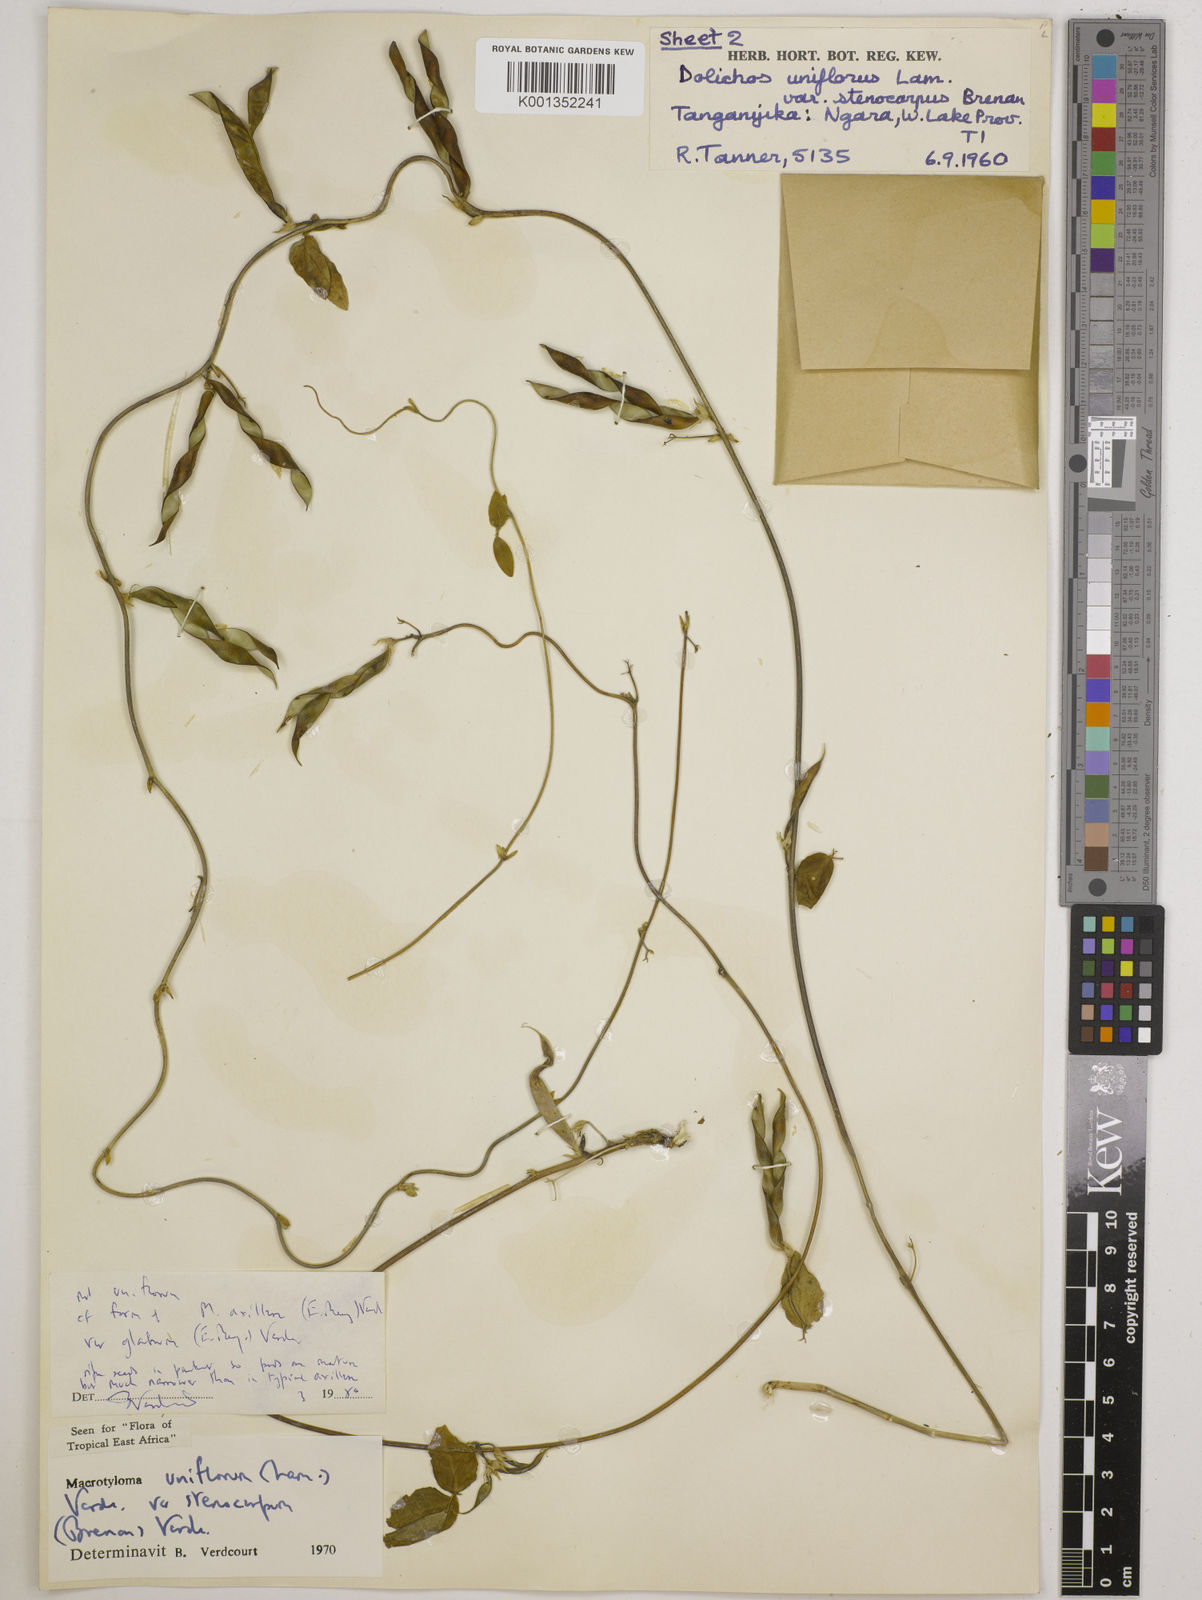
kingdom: Plantae
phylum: Tracheophyta
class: Magnoliopsida
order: Fabales
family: Fabaceae
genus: Macrotyloma
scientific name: Macrotyloma
